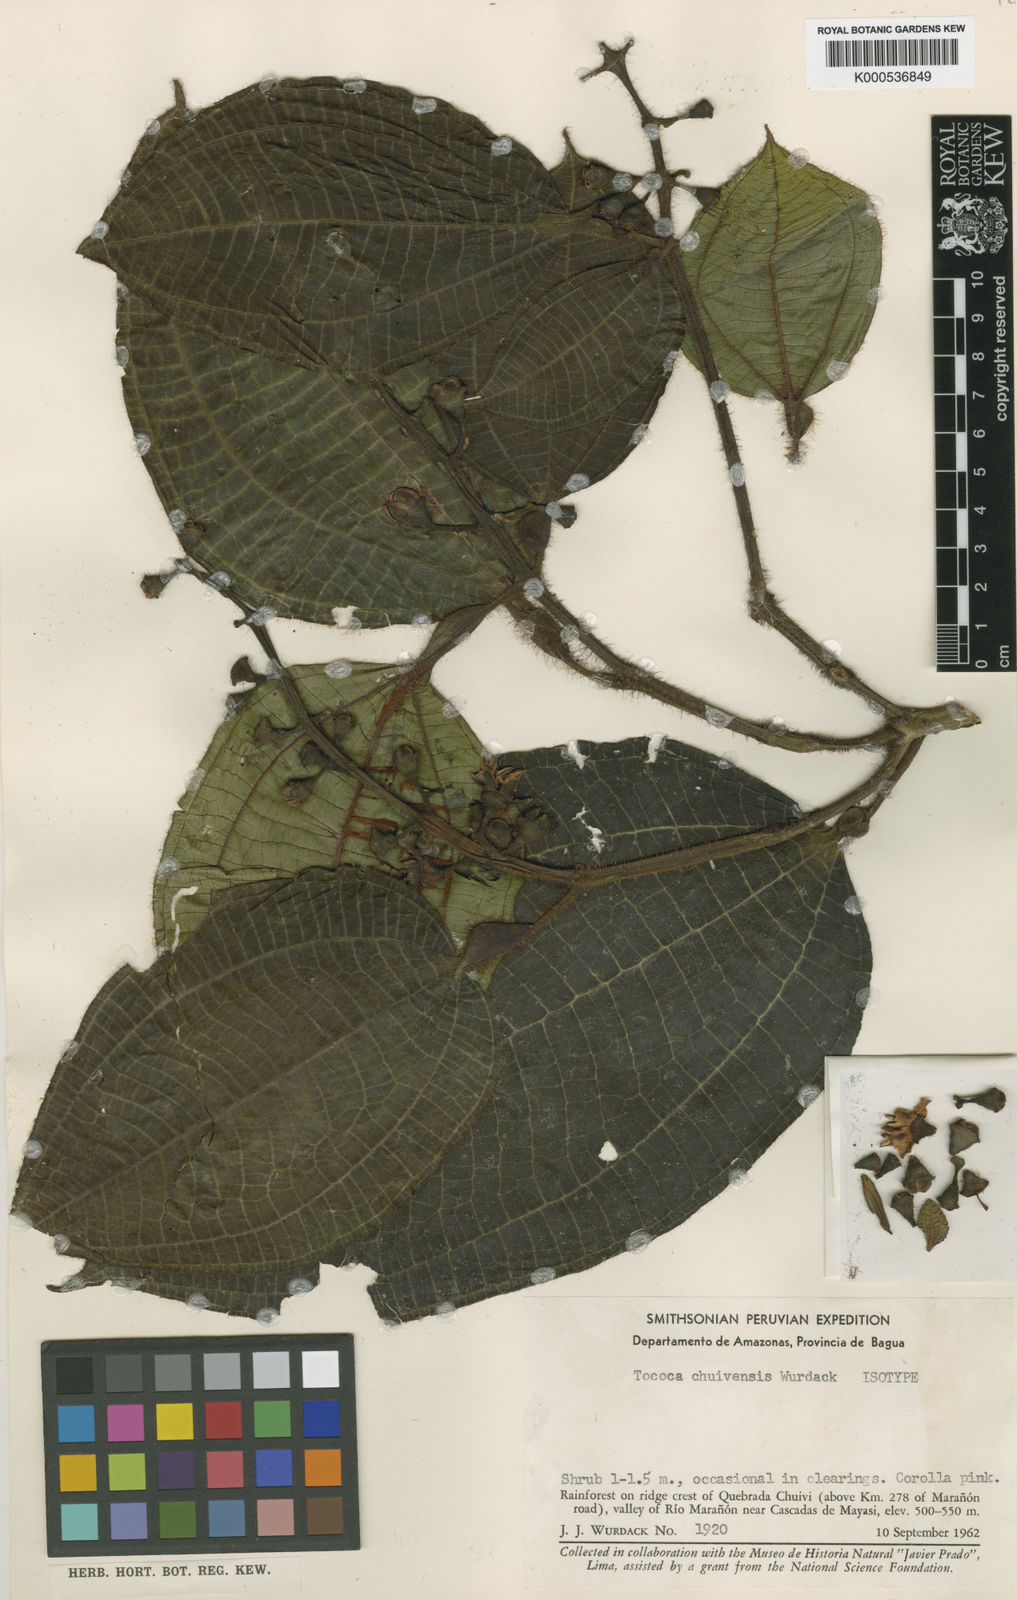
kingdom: Plantae
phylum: Tracheophyta
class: Magnoliopsida
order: Myrtales
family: Melastomataceae
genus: Miconia
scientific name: Miconia tococa
